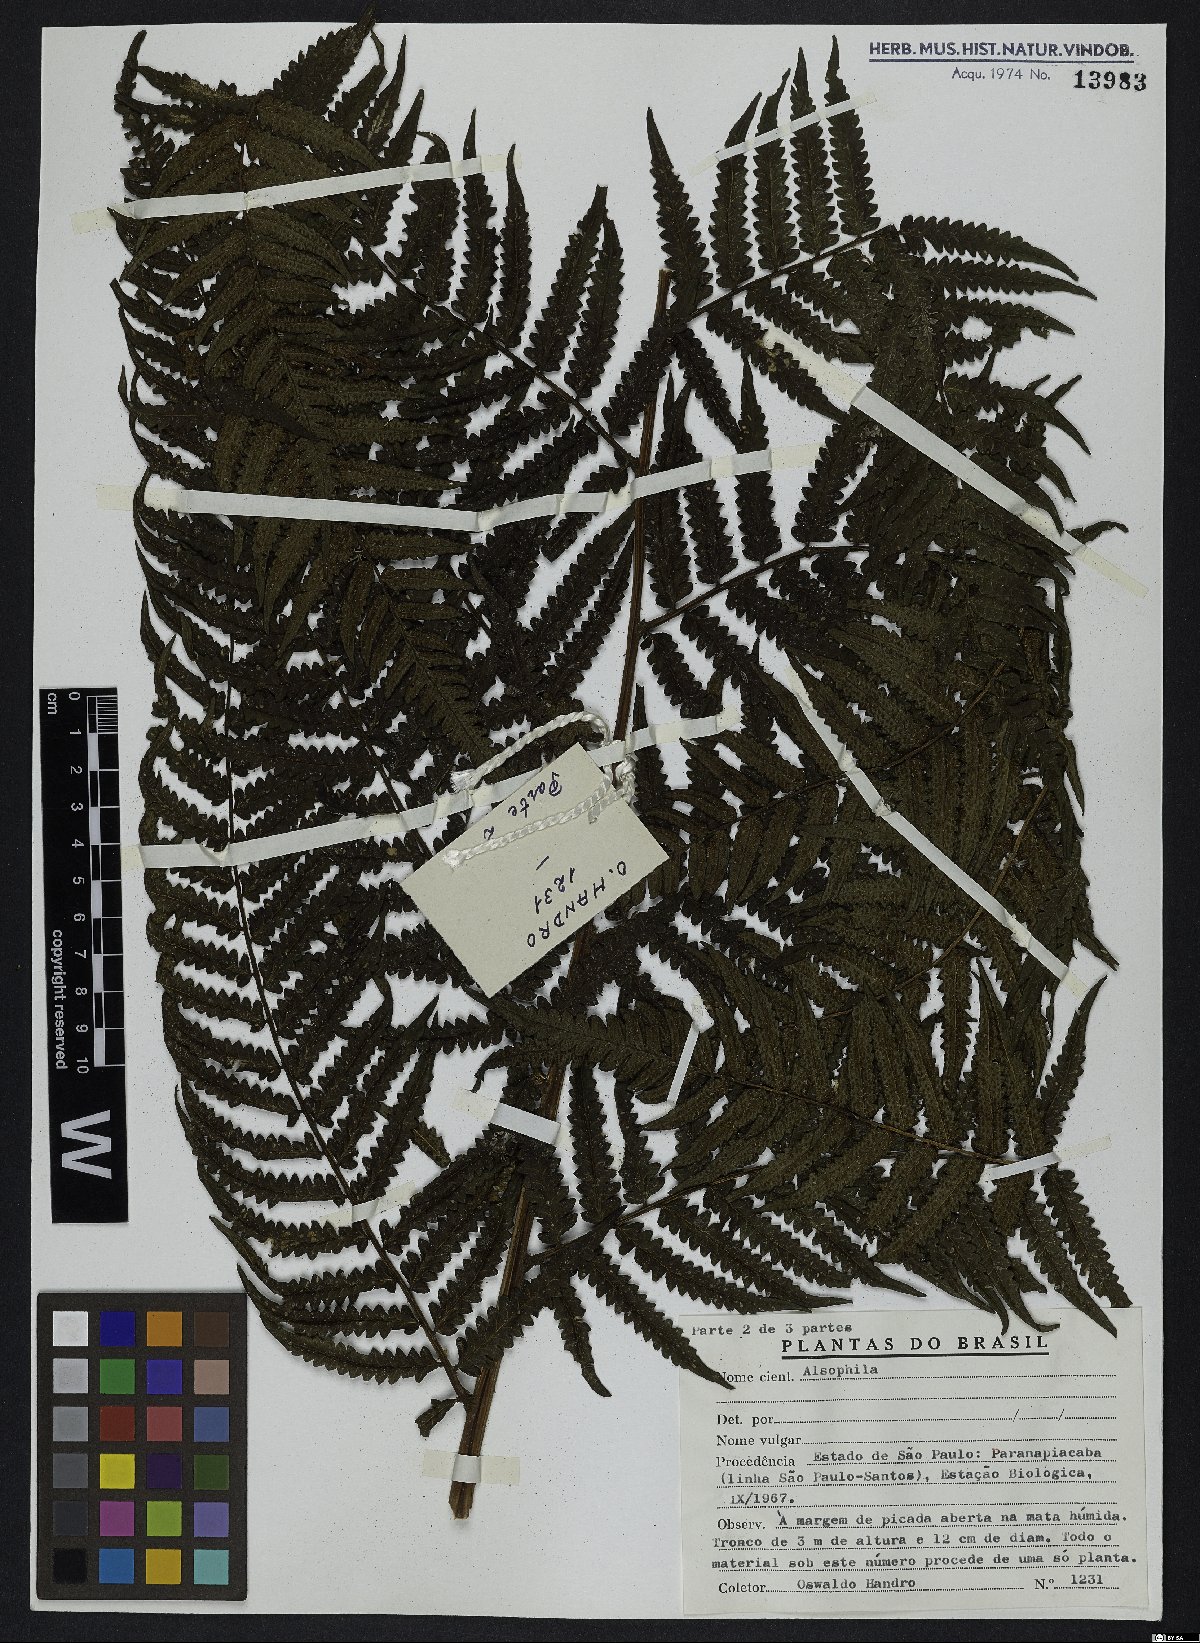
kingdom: Plantae
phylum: Tracheophyta
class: Polypodiopsida
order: Cyatheales
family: Cyatheaceae
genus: Alsophila
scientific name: Alsophila
